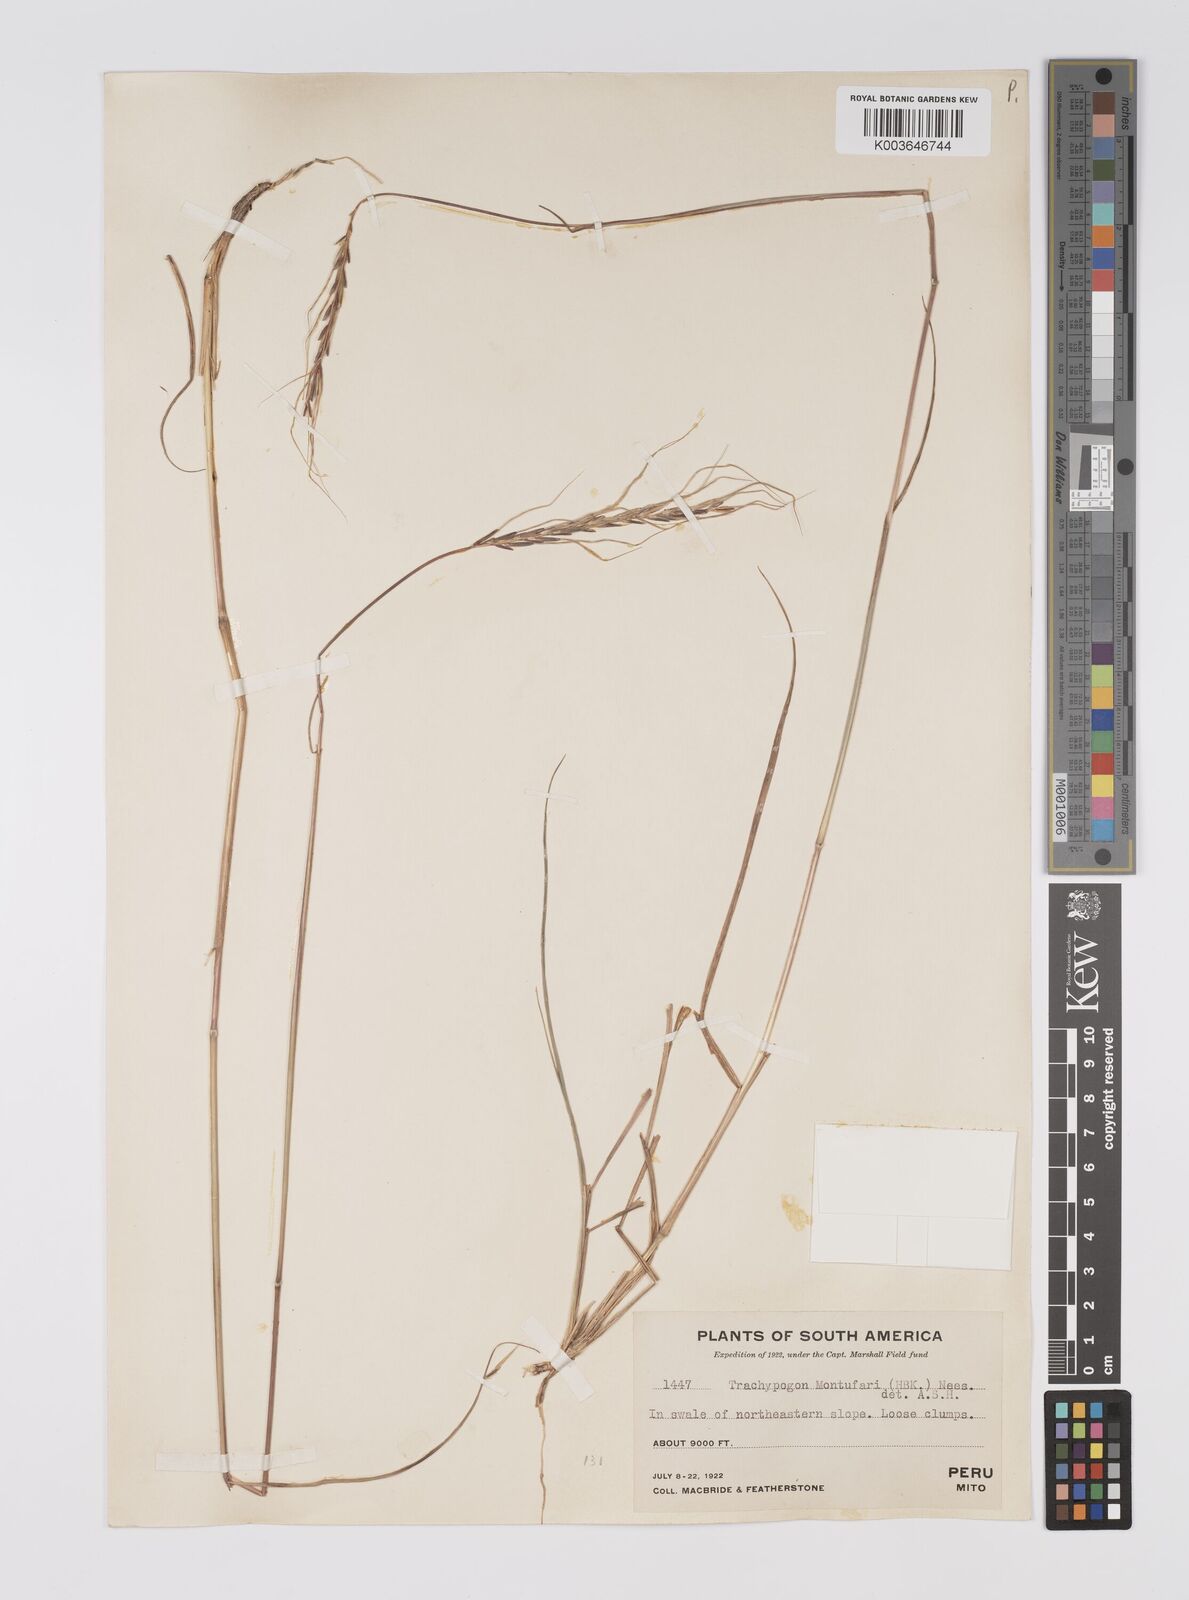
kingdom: Plantae
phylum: Tracheophyta
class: Liliopsida
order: Poales
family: Poaceae
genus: Trachypogon
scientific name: Trachypogon spicatus
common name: Crinkle-awn
